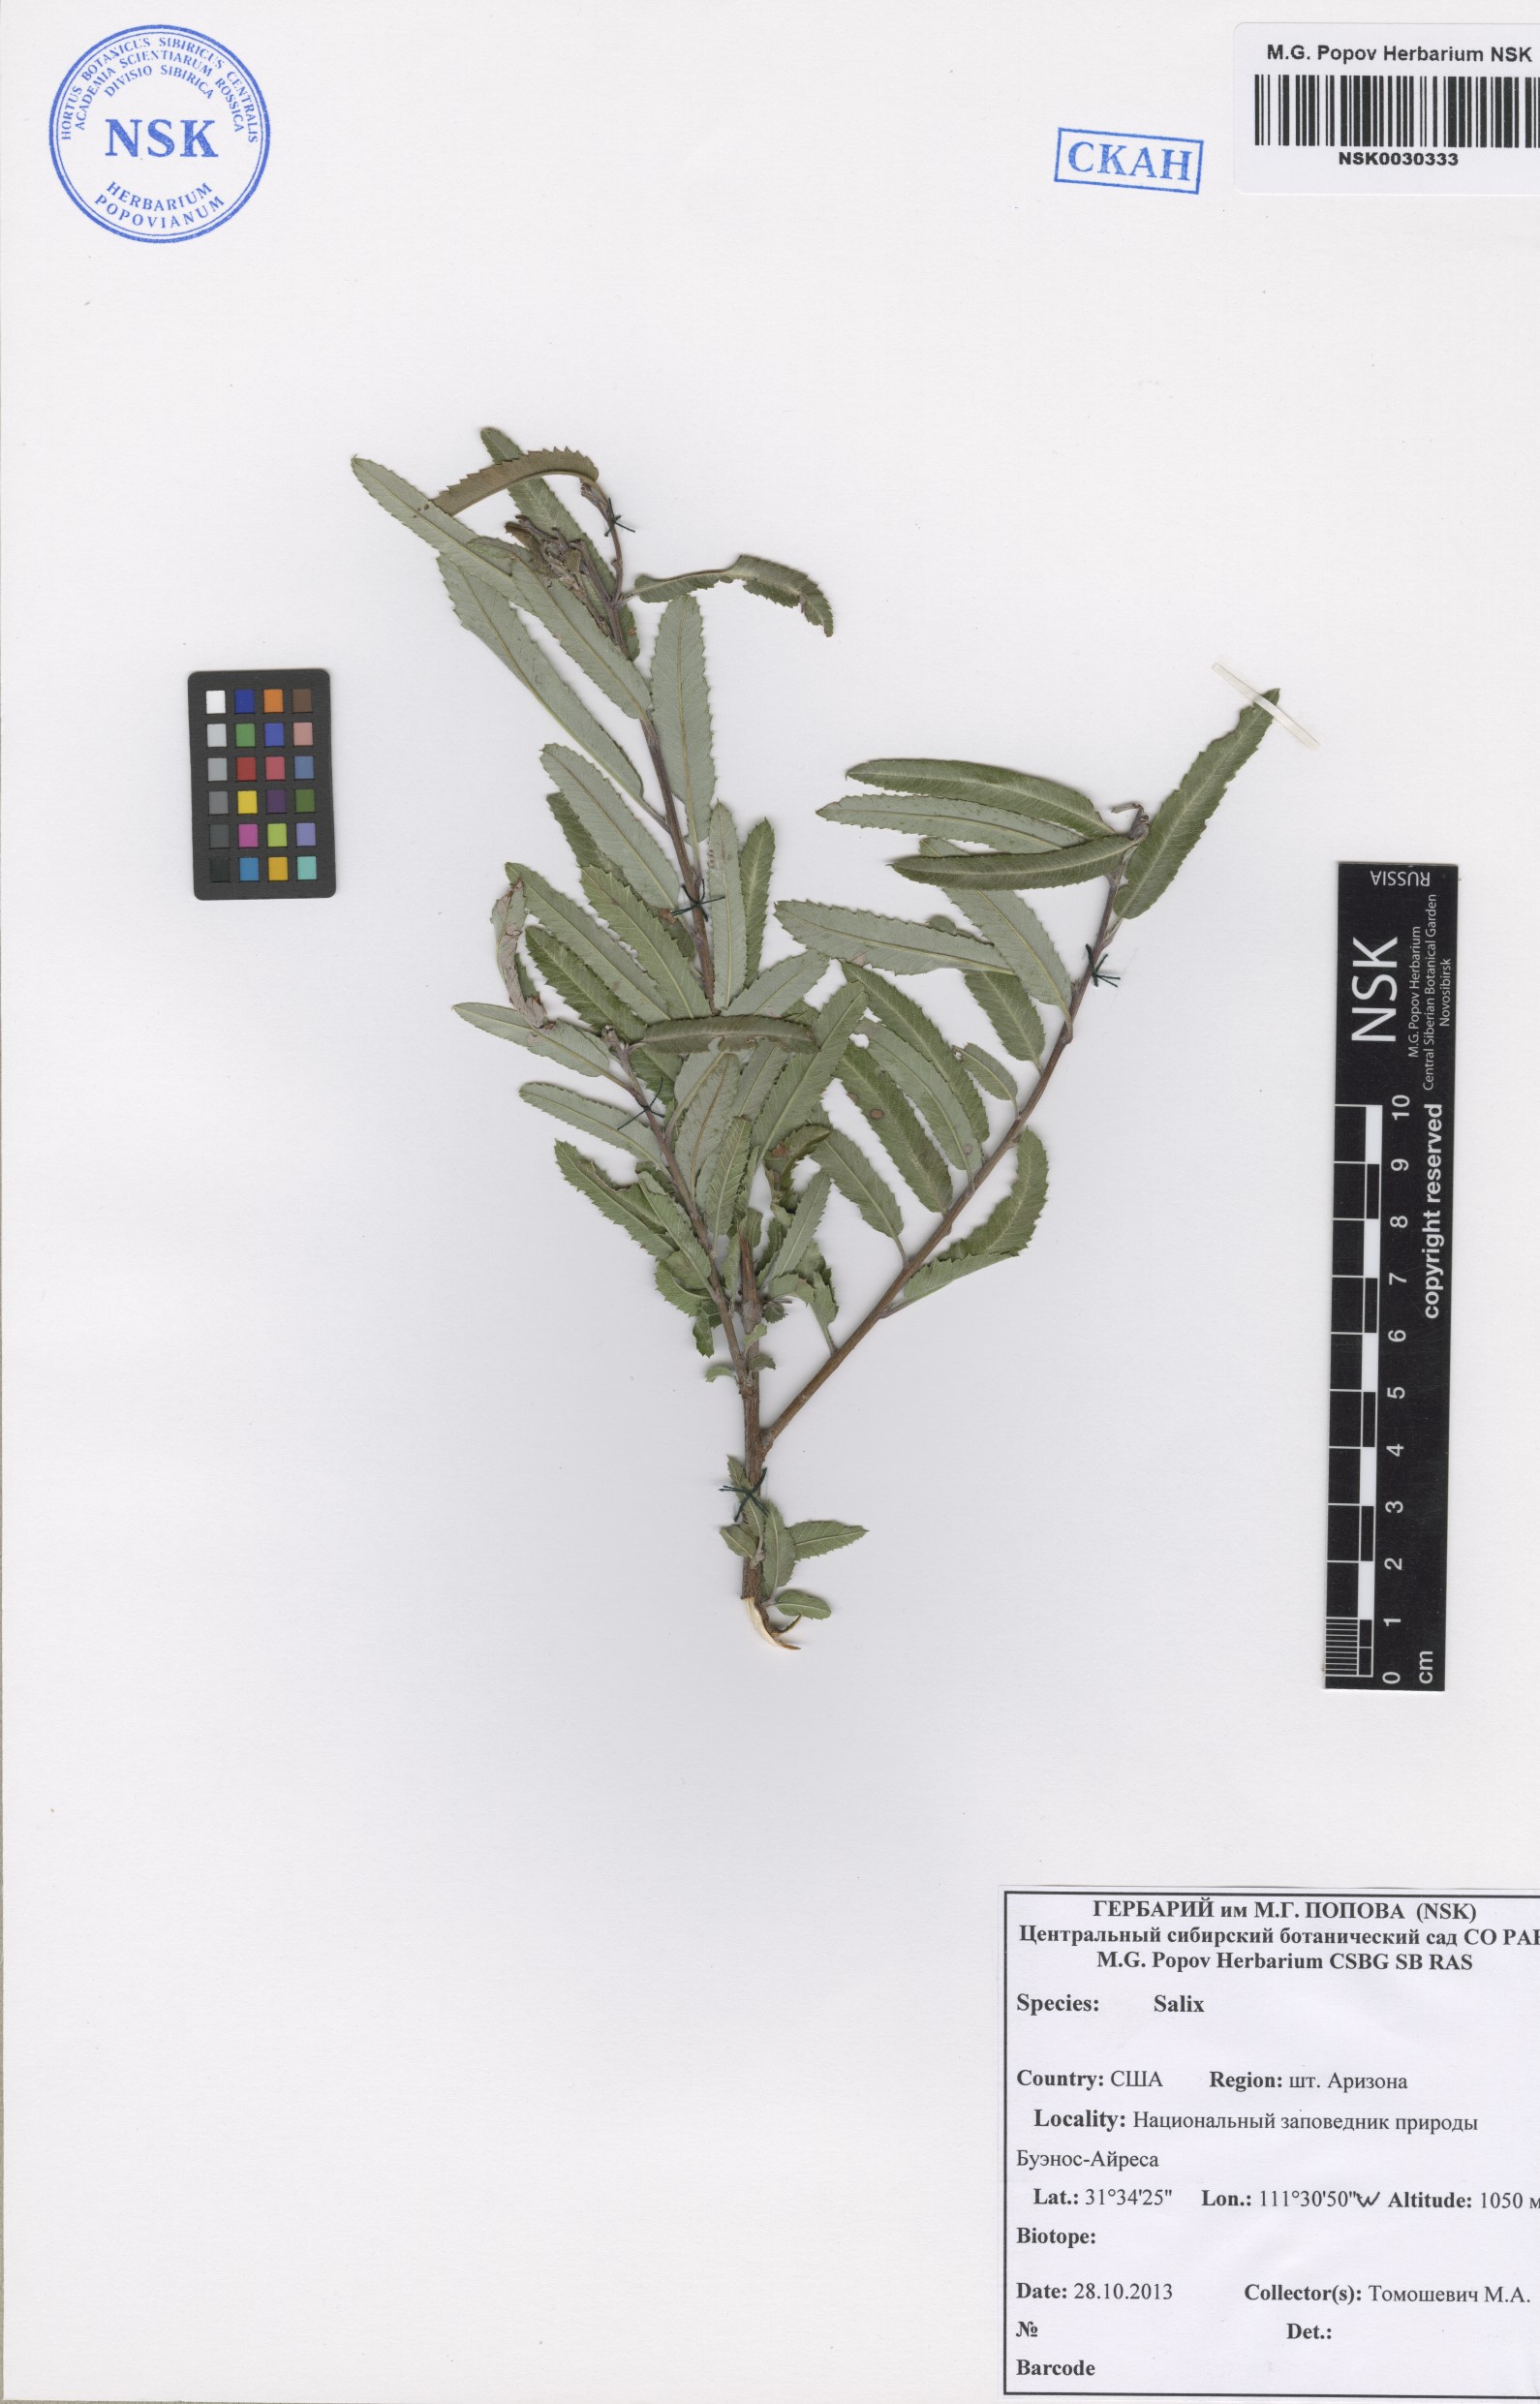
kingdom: Plantae
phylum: Tracheophyta
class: Magnoliopsida
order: Malpighiales
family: Salicaceae
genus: Salix
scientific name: Salix
